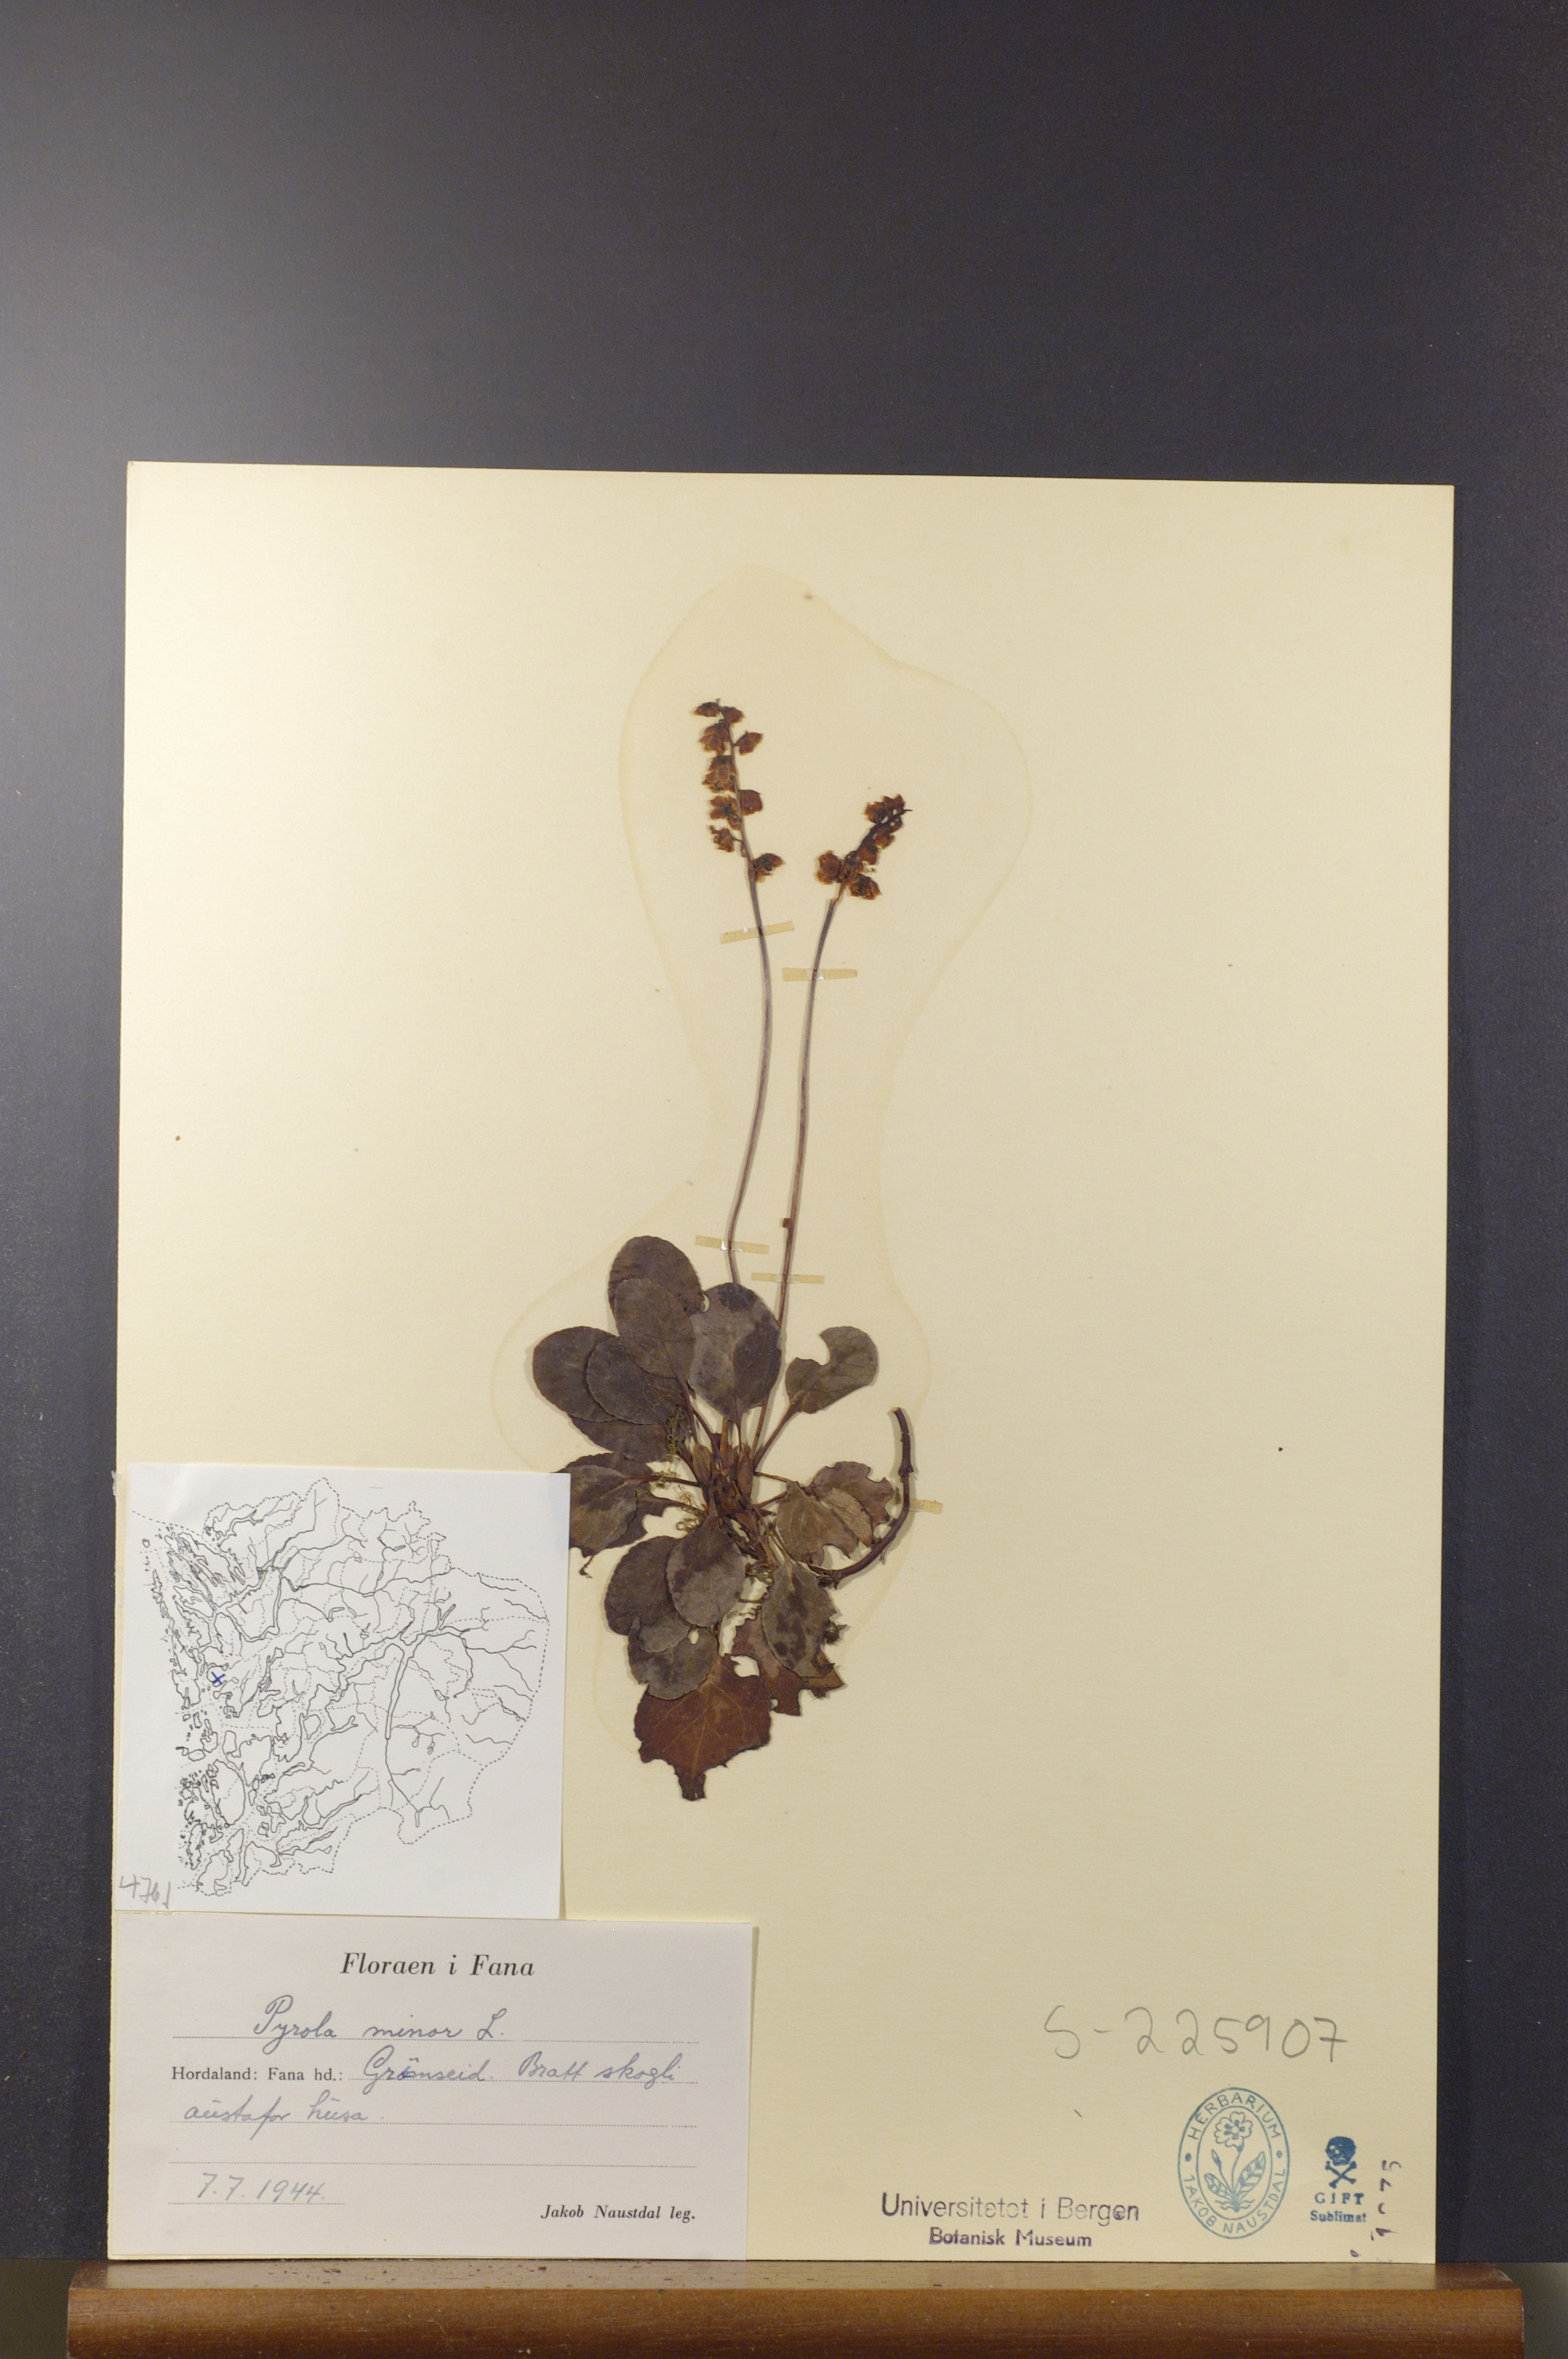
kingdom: Plantae
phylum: Tracheophyta
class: Magnoliopsida
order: Ericales
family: Ericaceae
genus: Pyrola
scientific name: Pyrola minor
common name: Common wintergreen
